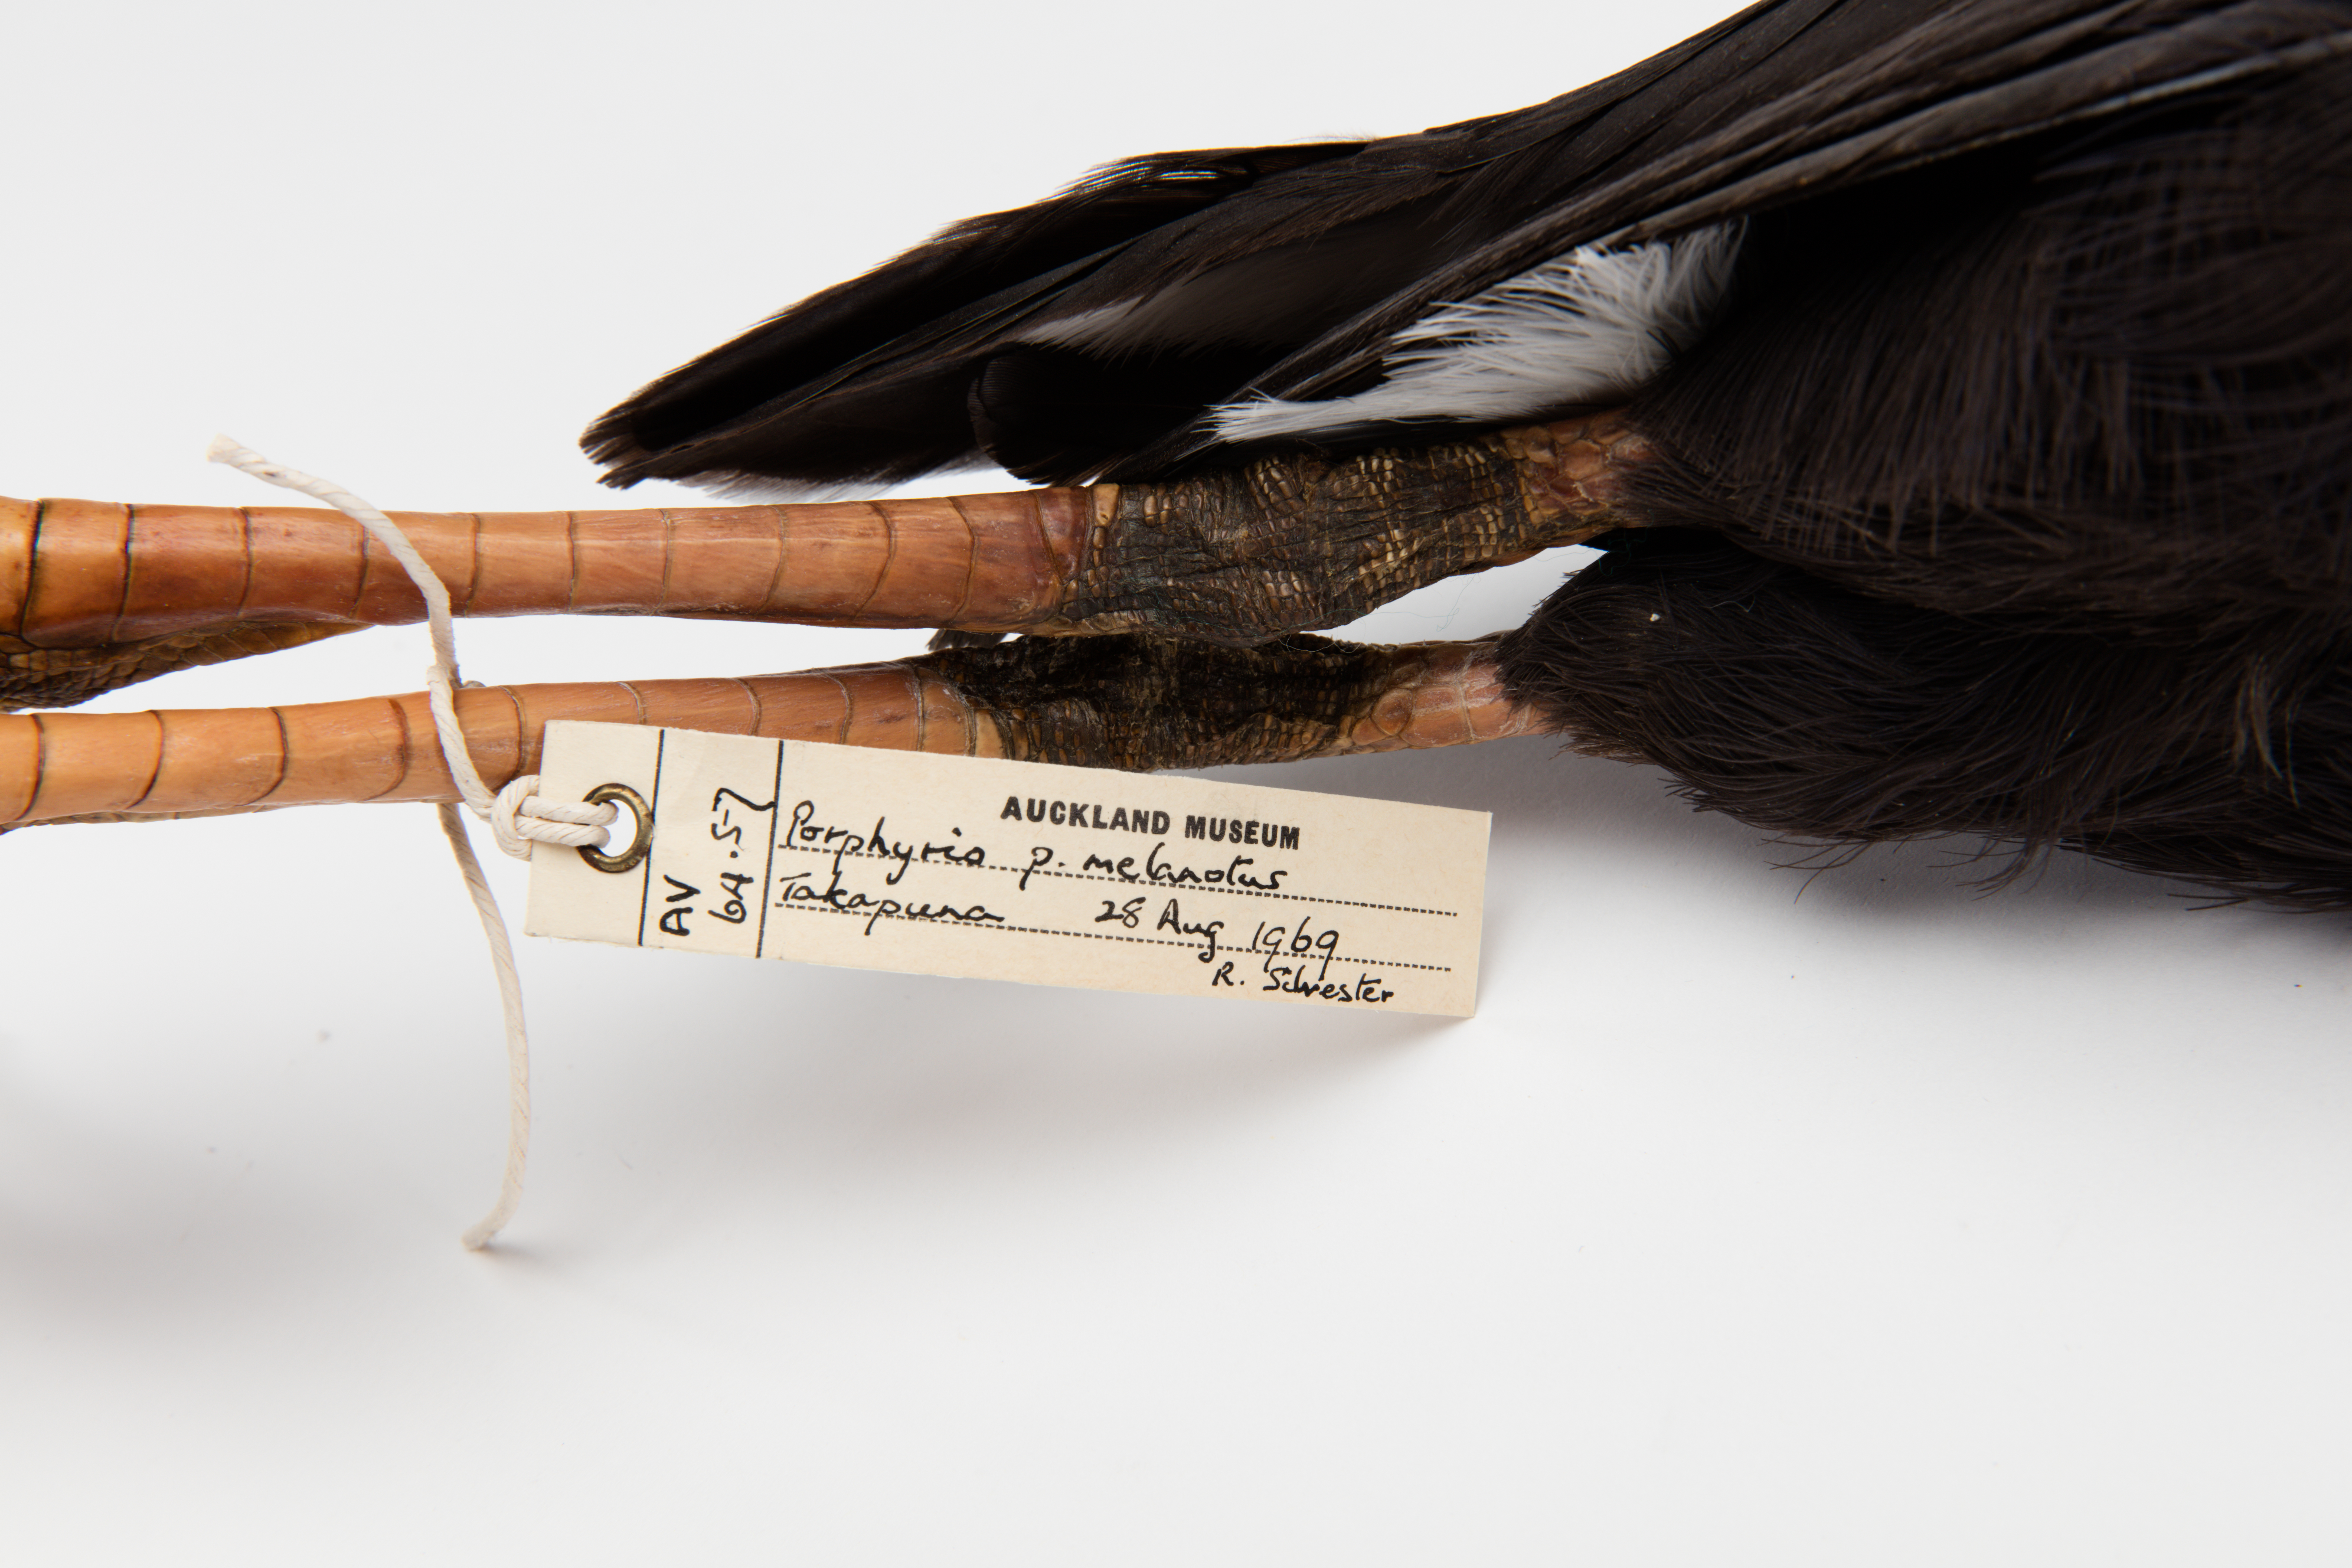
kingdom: Animalia
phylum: Chordata
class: Aves
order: Gruiformes
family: Rallidae
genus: Porphyrio
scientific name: Porphyrio melanotus
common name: Australasian swamphen
